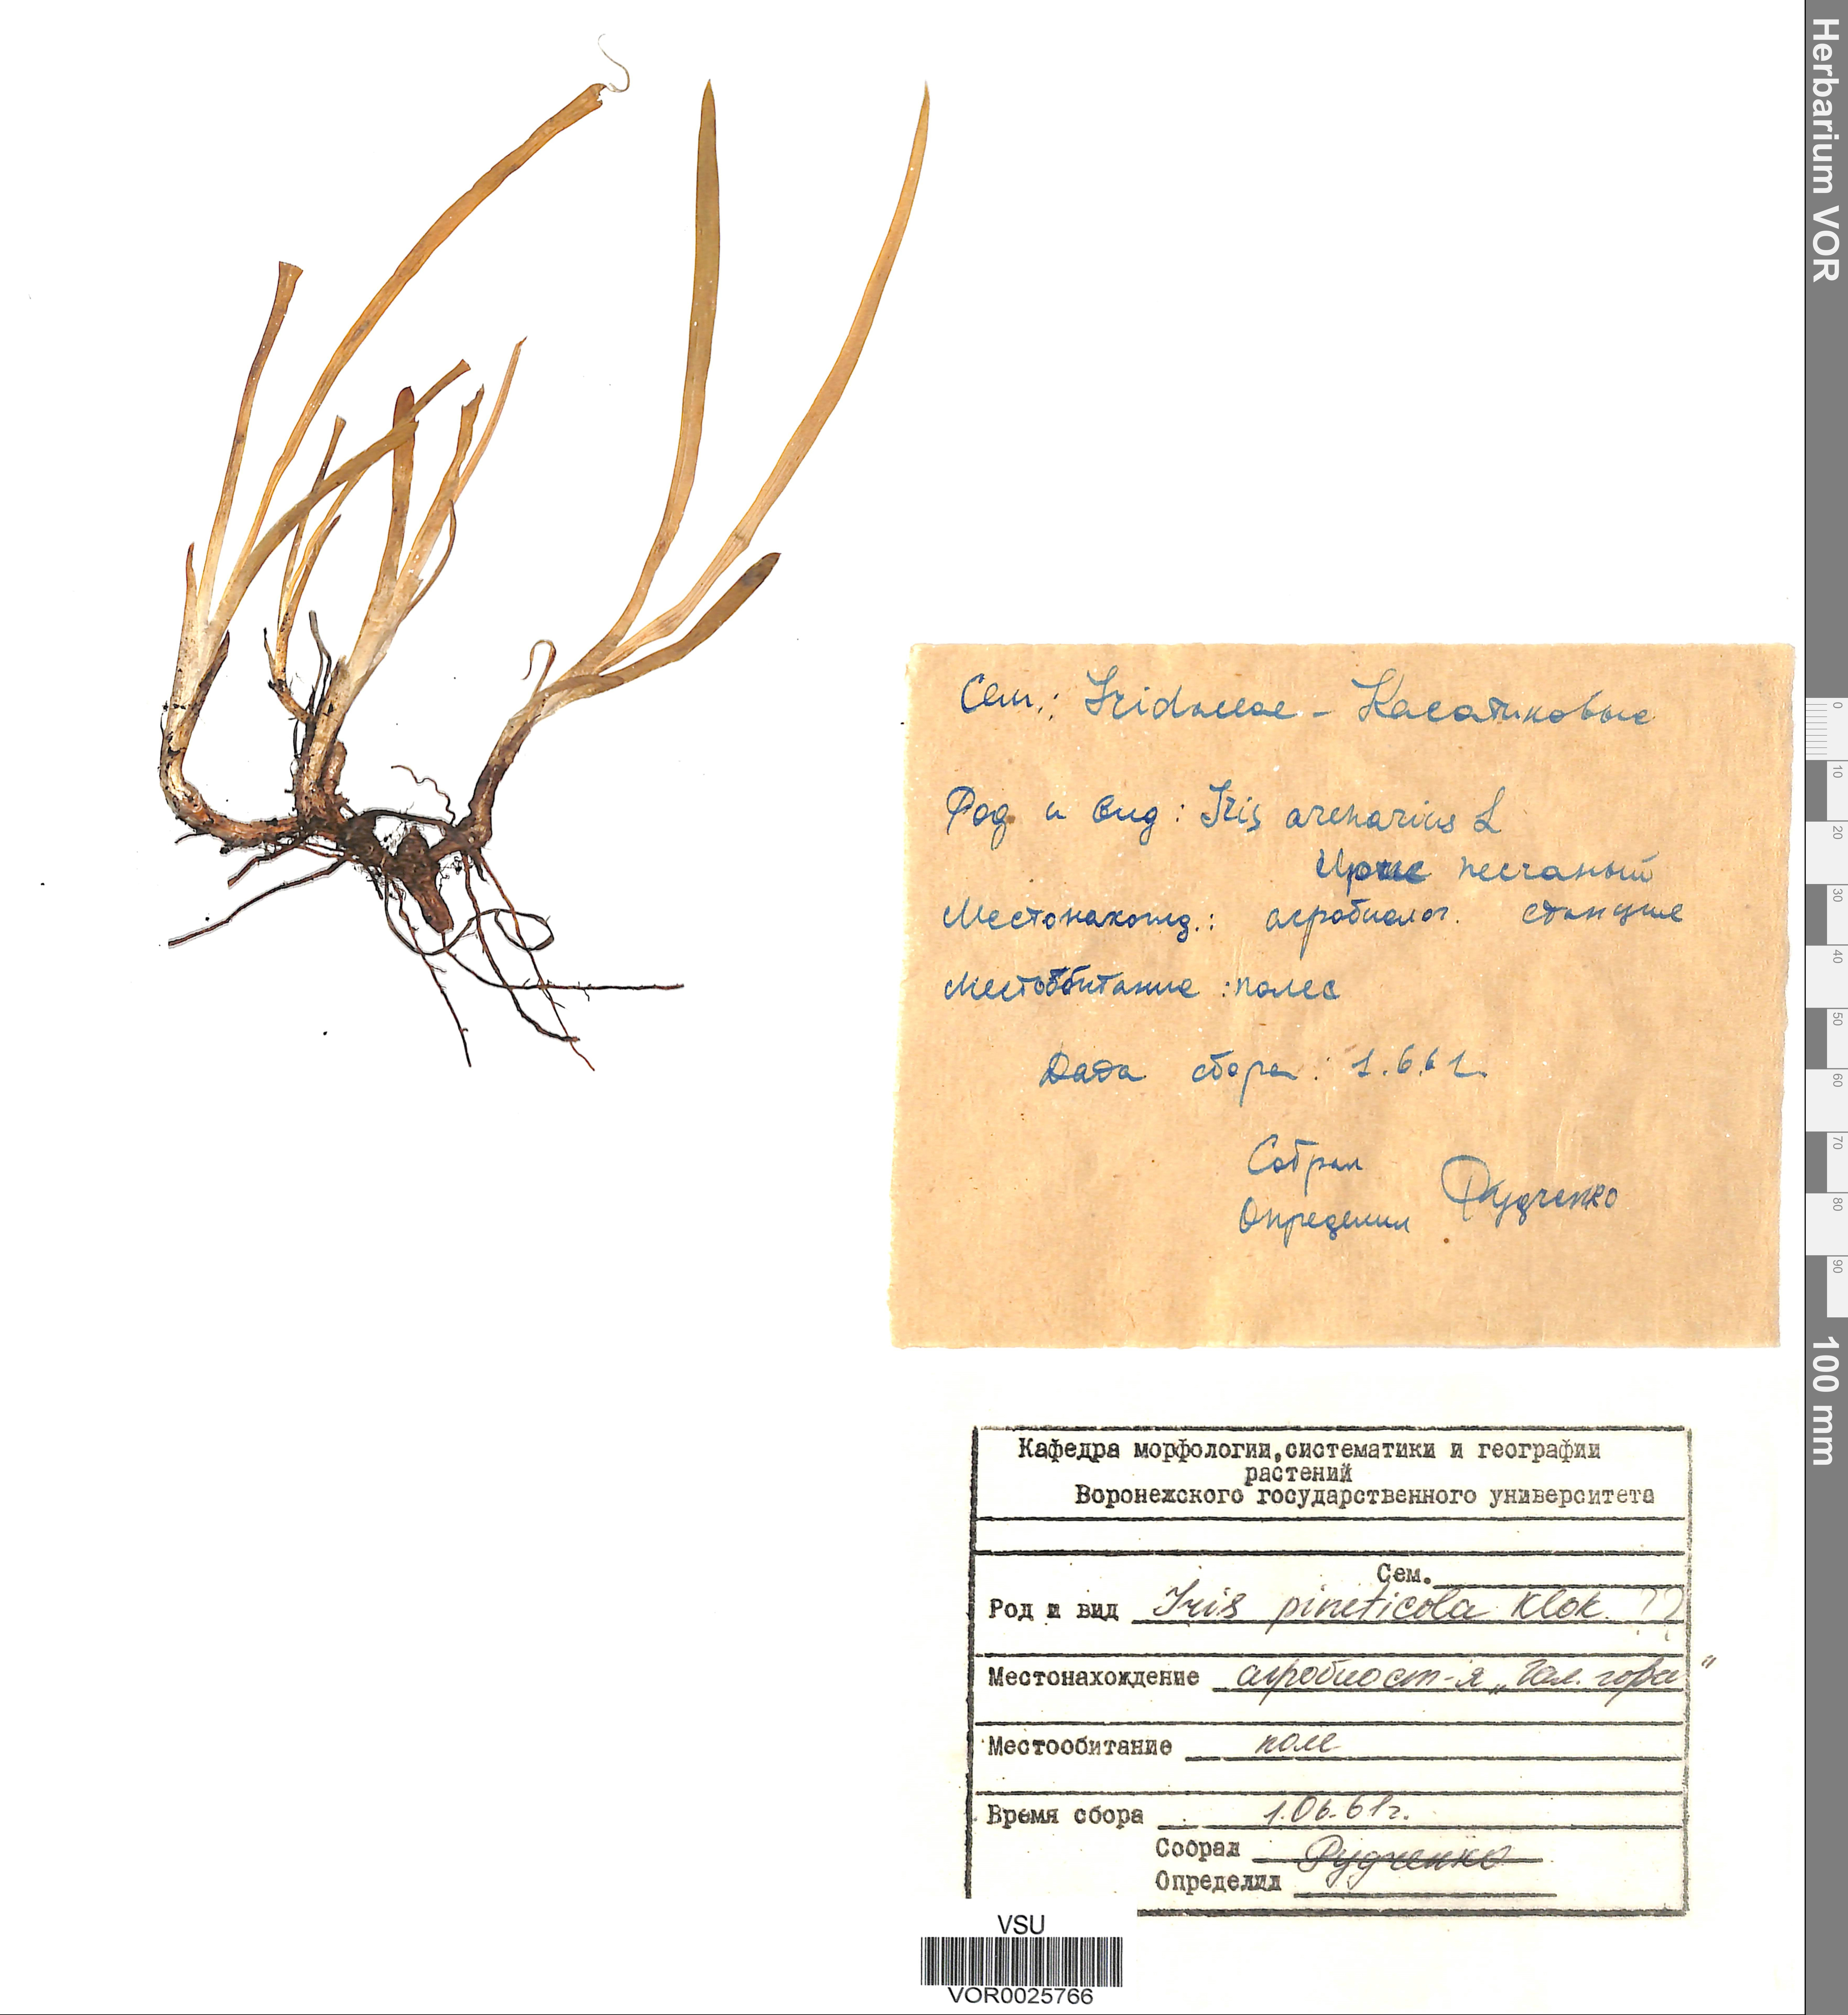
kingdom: Plantae
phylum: Tracheophyta
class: Liliopsida
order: Asparagales
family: Iridaceae
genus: Iris
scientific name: Iris arenaria
